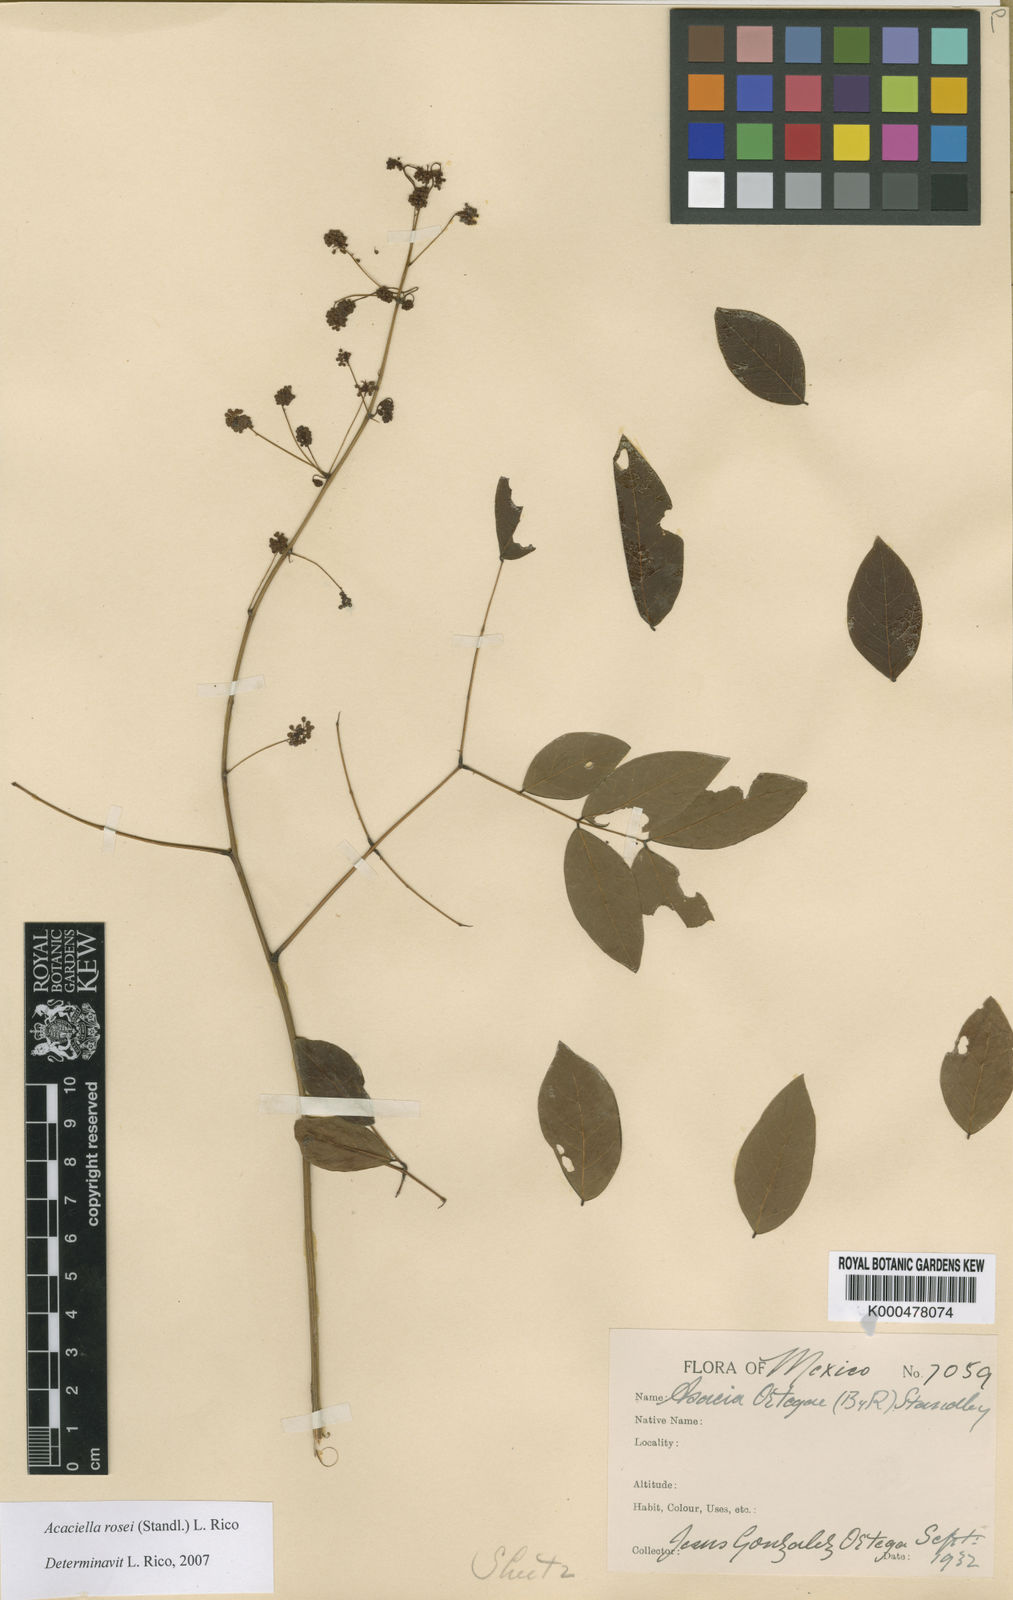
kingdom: Plantae
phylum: Tracheophyta
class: Magnoliopsida
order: Fabales
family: Fabaceae
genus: Acaciella
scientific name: Acaciella rosei
